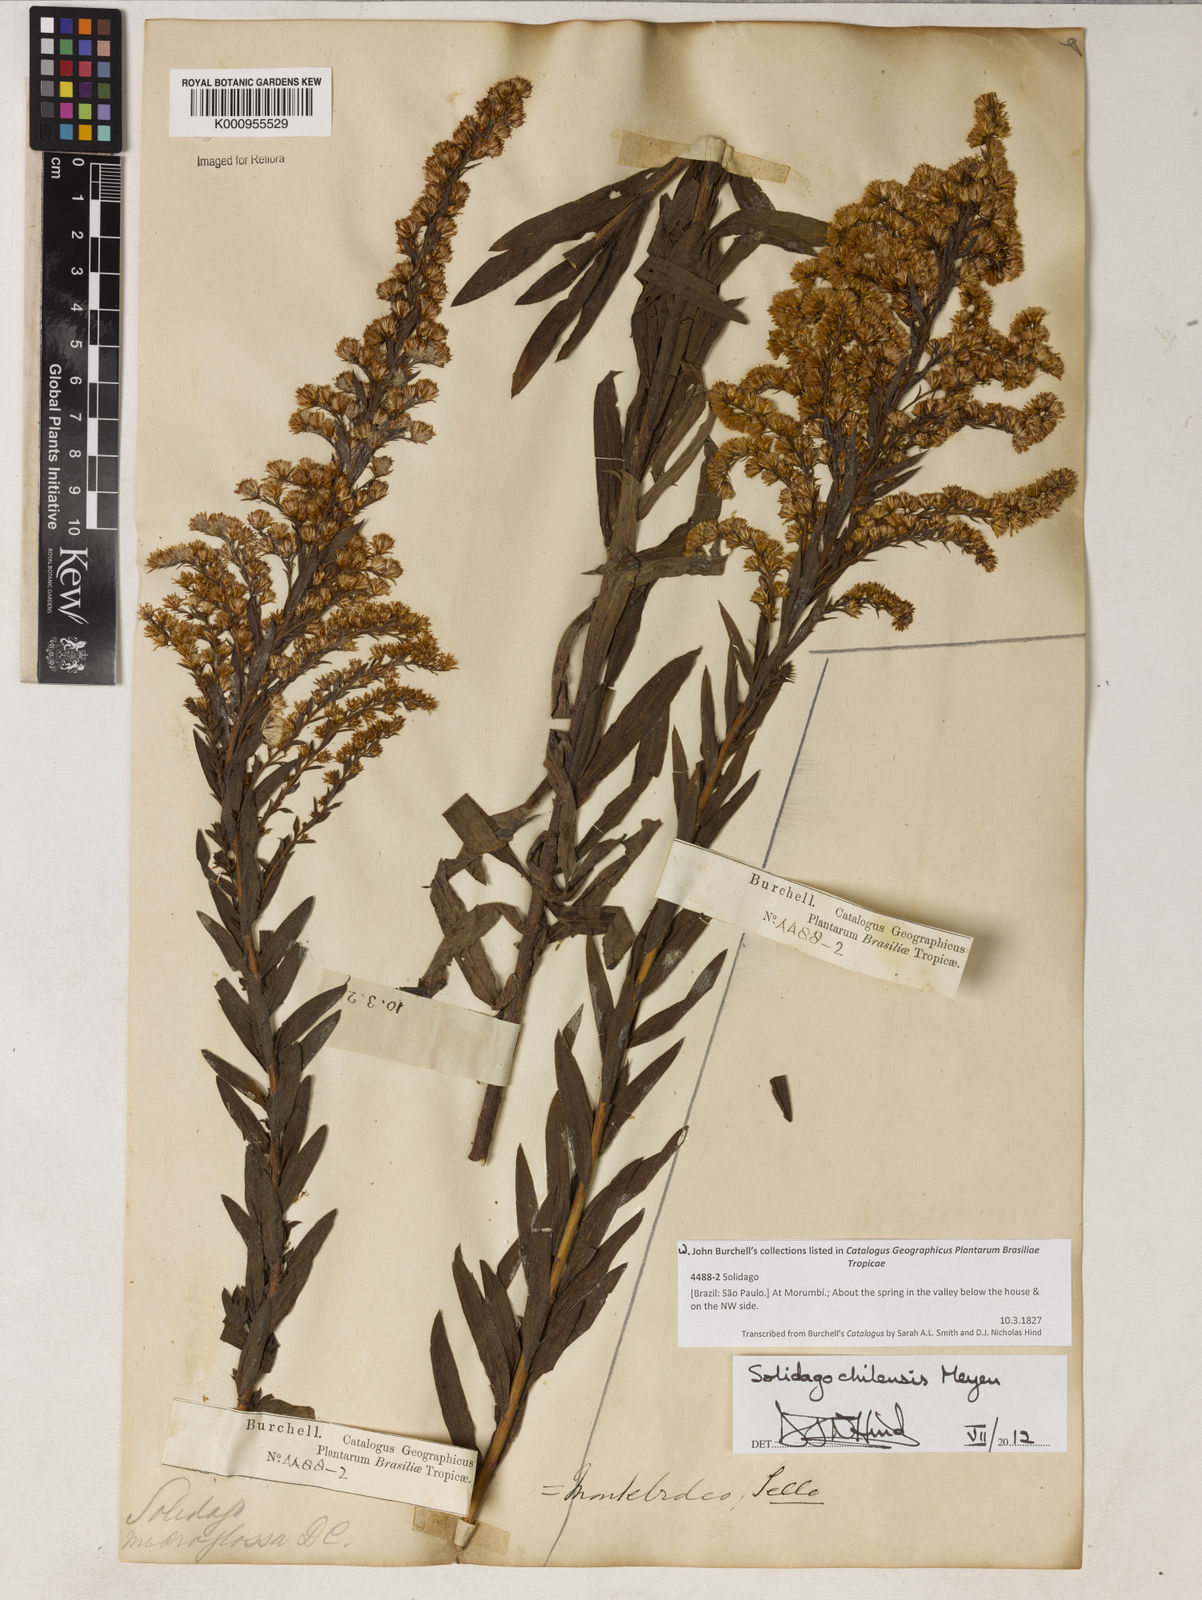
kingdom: Plantae
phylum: Tracheophyta
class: Magnoliopsida
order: Asterales
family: Asteraceae
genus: Solidago
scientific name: Solidago chilensis
